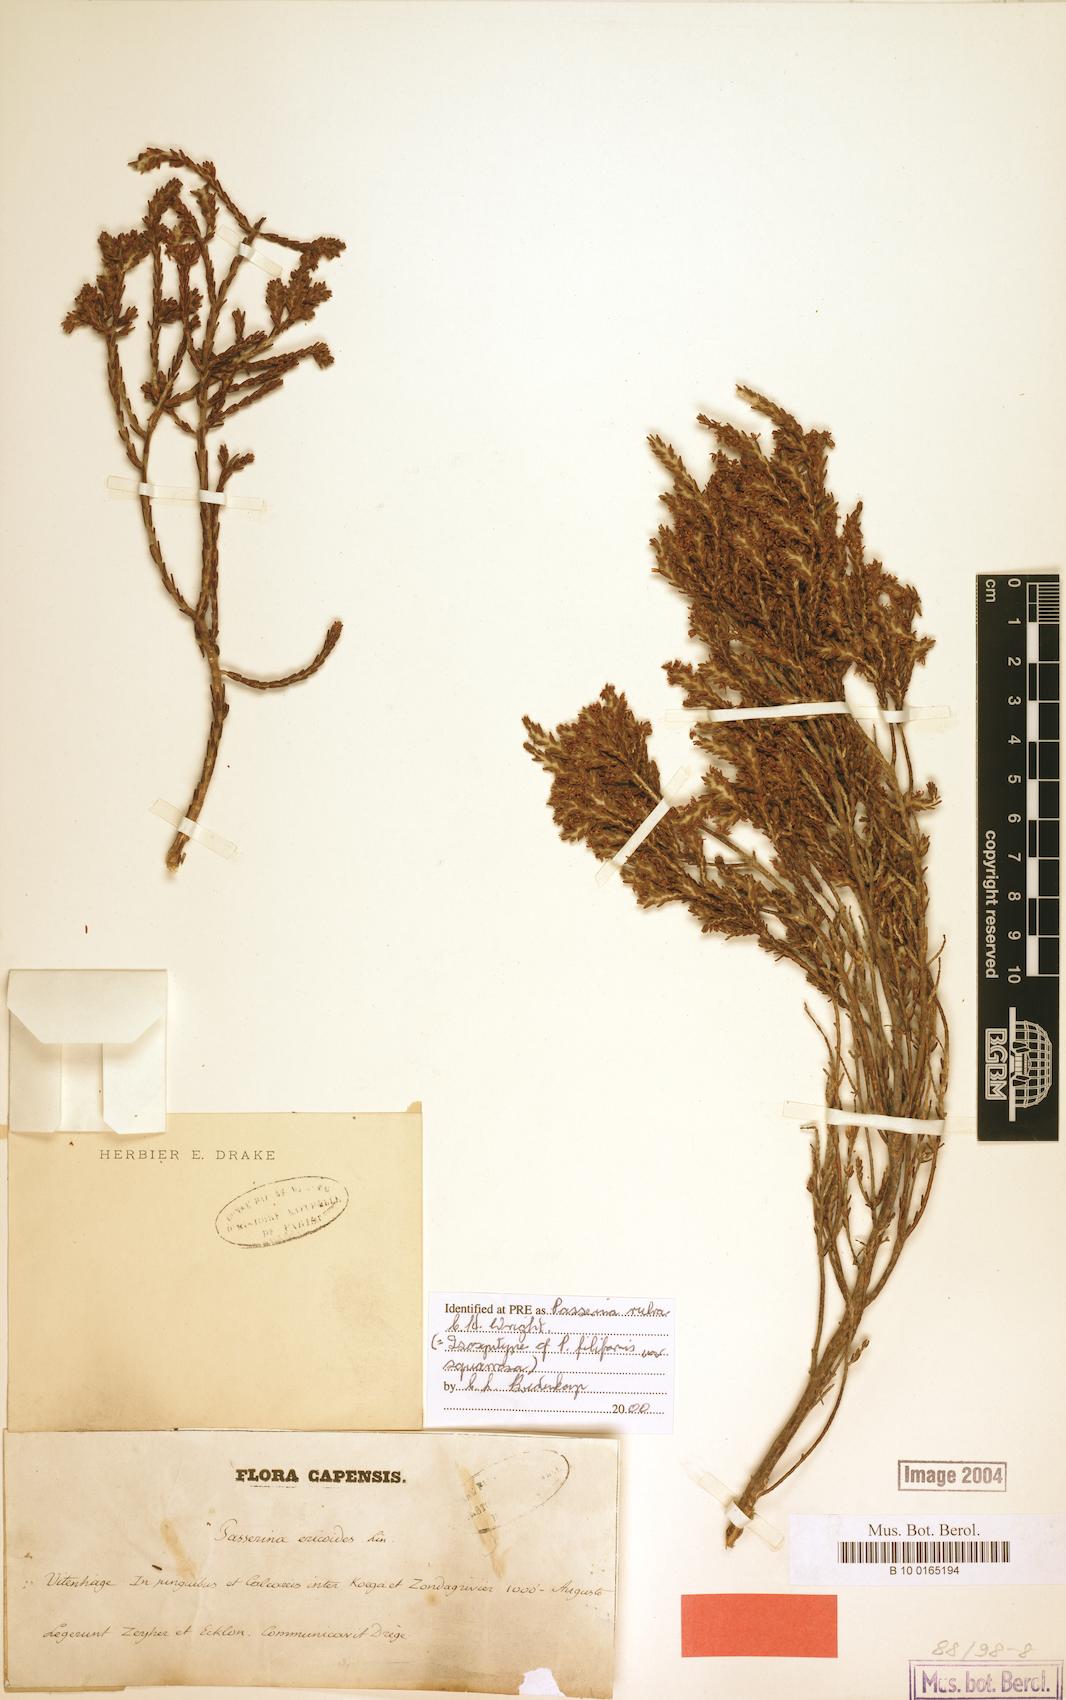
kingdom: Plantae
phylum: Tracheophyta
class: Magnoliopsida
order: Malvales
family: Thymelaeaceae
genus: Passerina
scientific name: Passerina rubra
